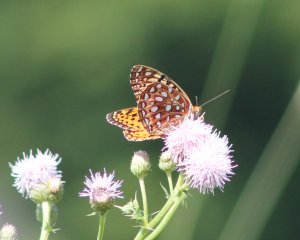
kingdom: Animalia
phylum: Arthropoda
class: Insecta
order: Lepidoptera
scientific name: Lepidoptera
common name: Butterflies
